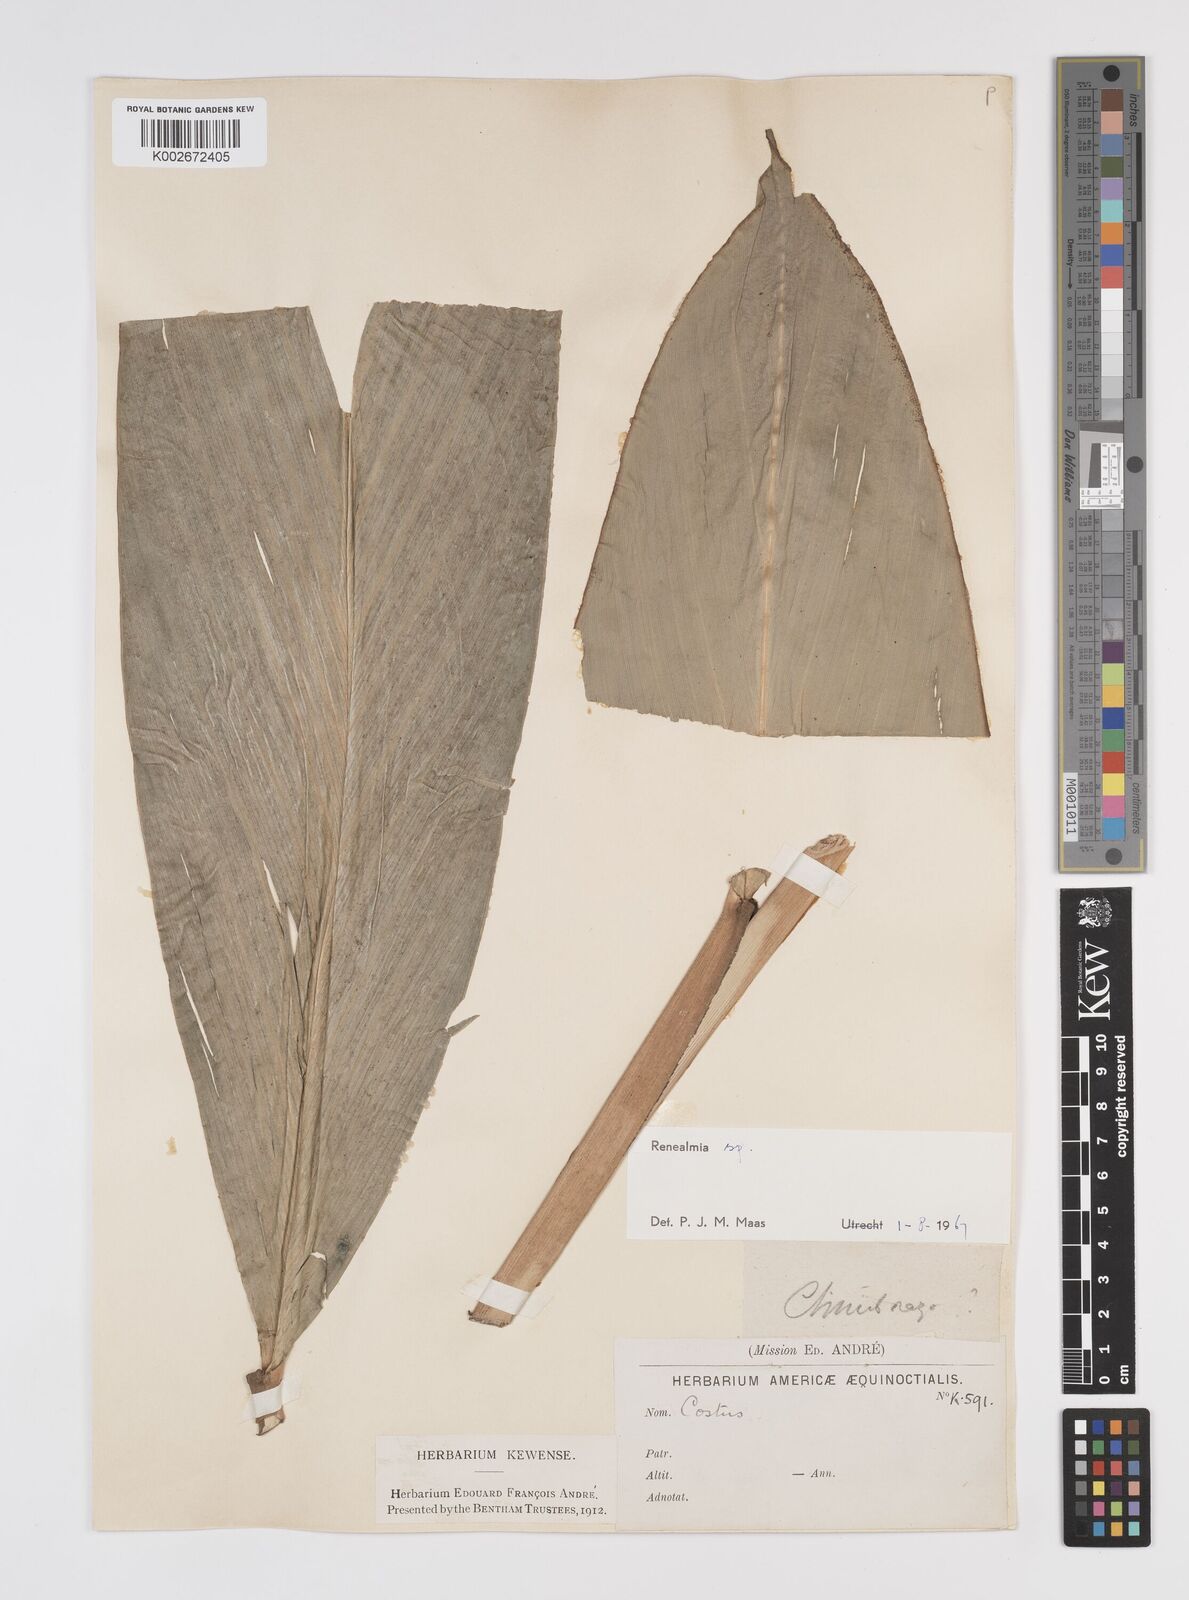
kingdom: Plantae
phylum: Tracheophyta
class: Liliopsida
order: Zingiberales
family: Zingiberaceae
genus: Renealmia
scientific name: Renealmia
